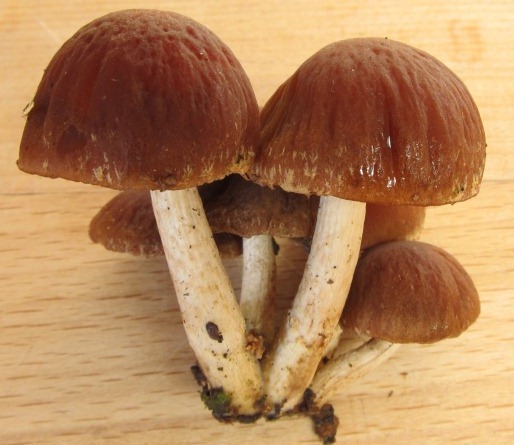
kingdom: Fungi
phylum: Basidiomycota
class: Agaricomycetes
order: Agaricales
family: Psathyrellaceae
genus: Psathyrella
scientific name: Psathyrella pertinax
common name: gran-mørkhat
